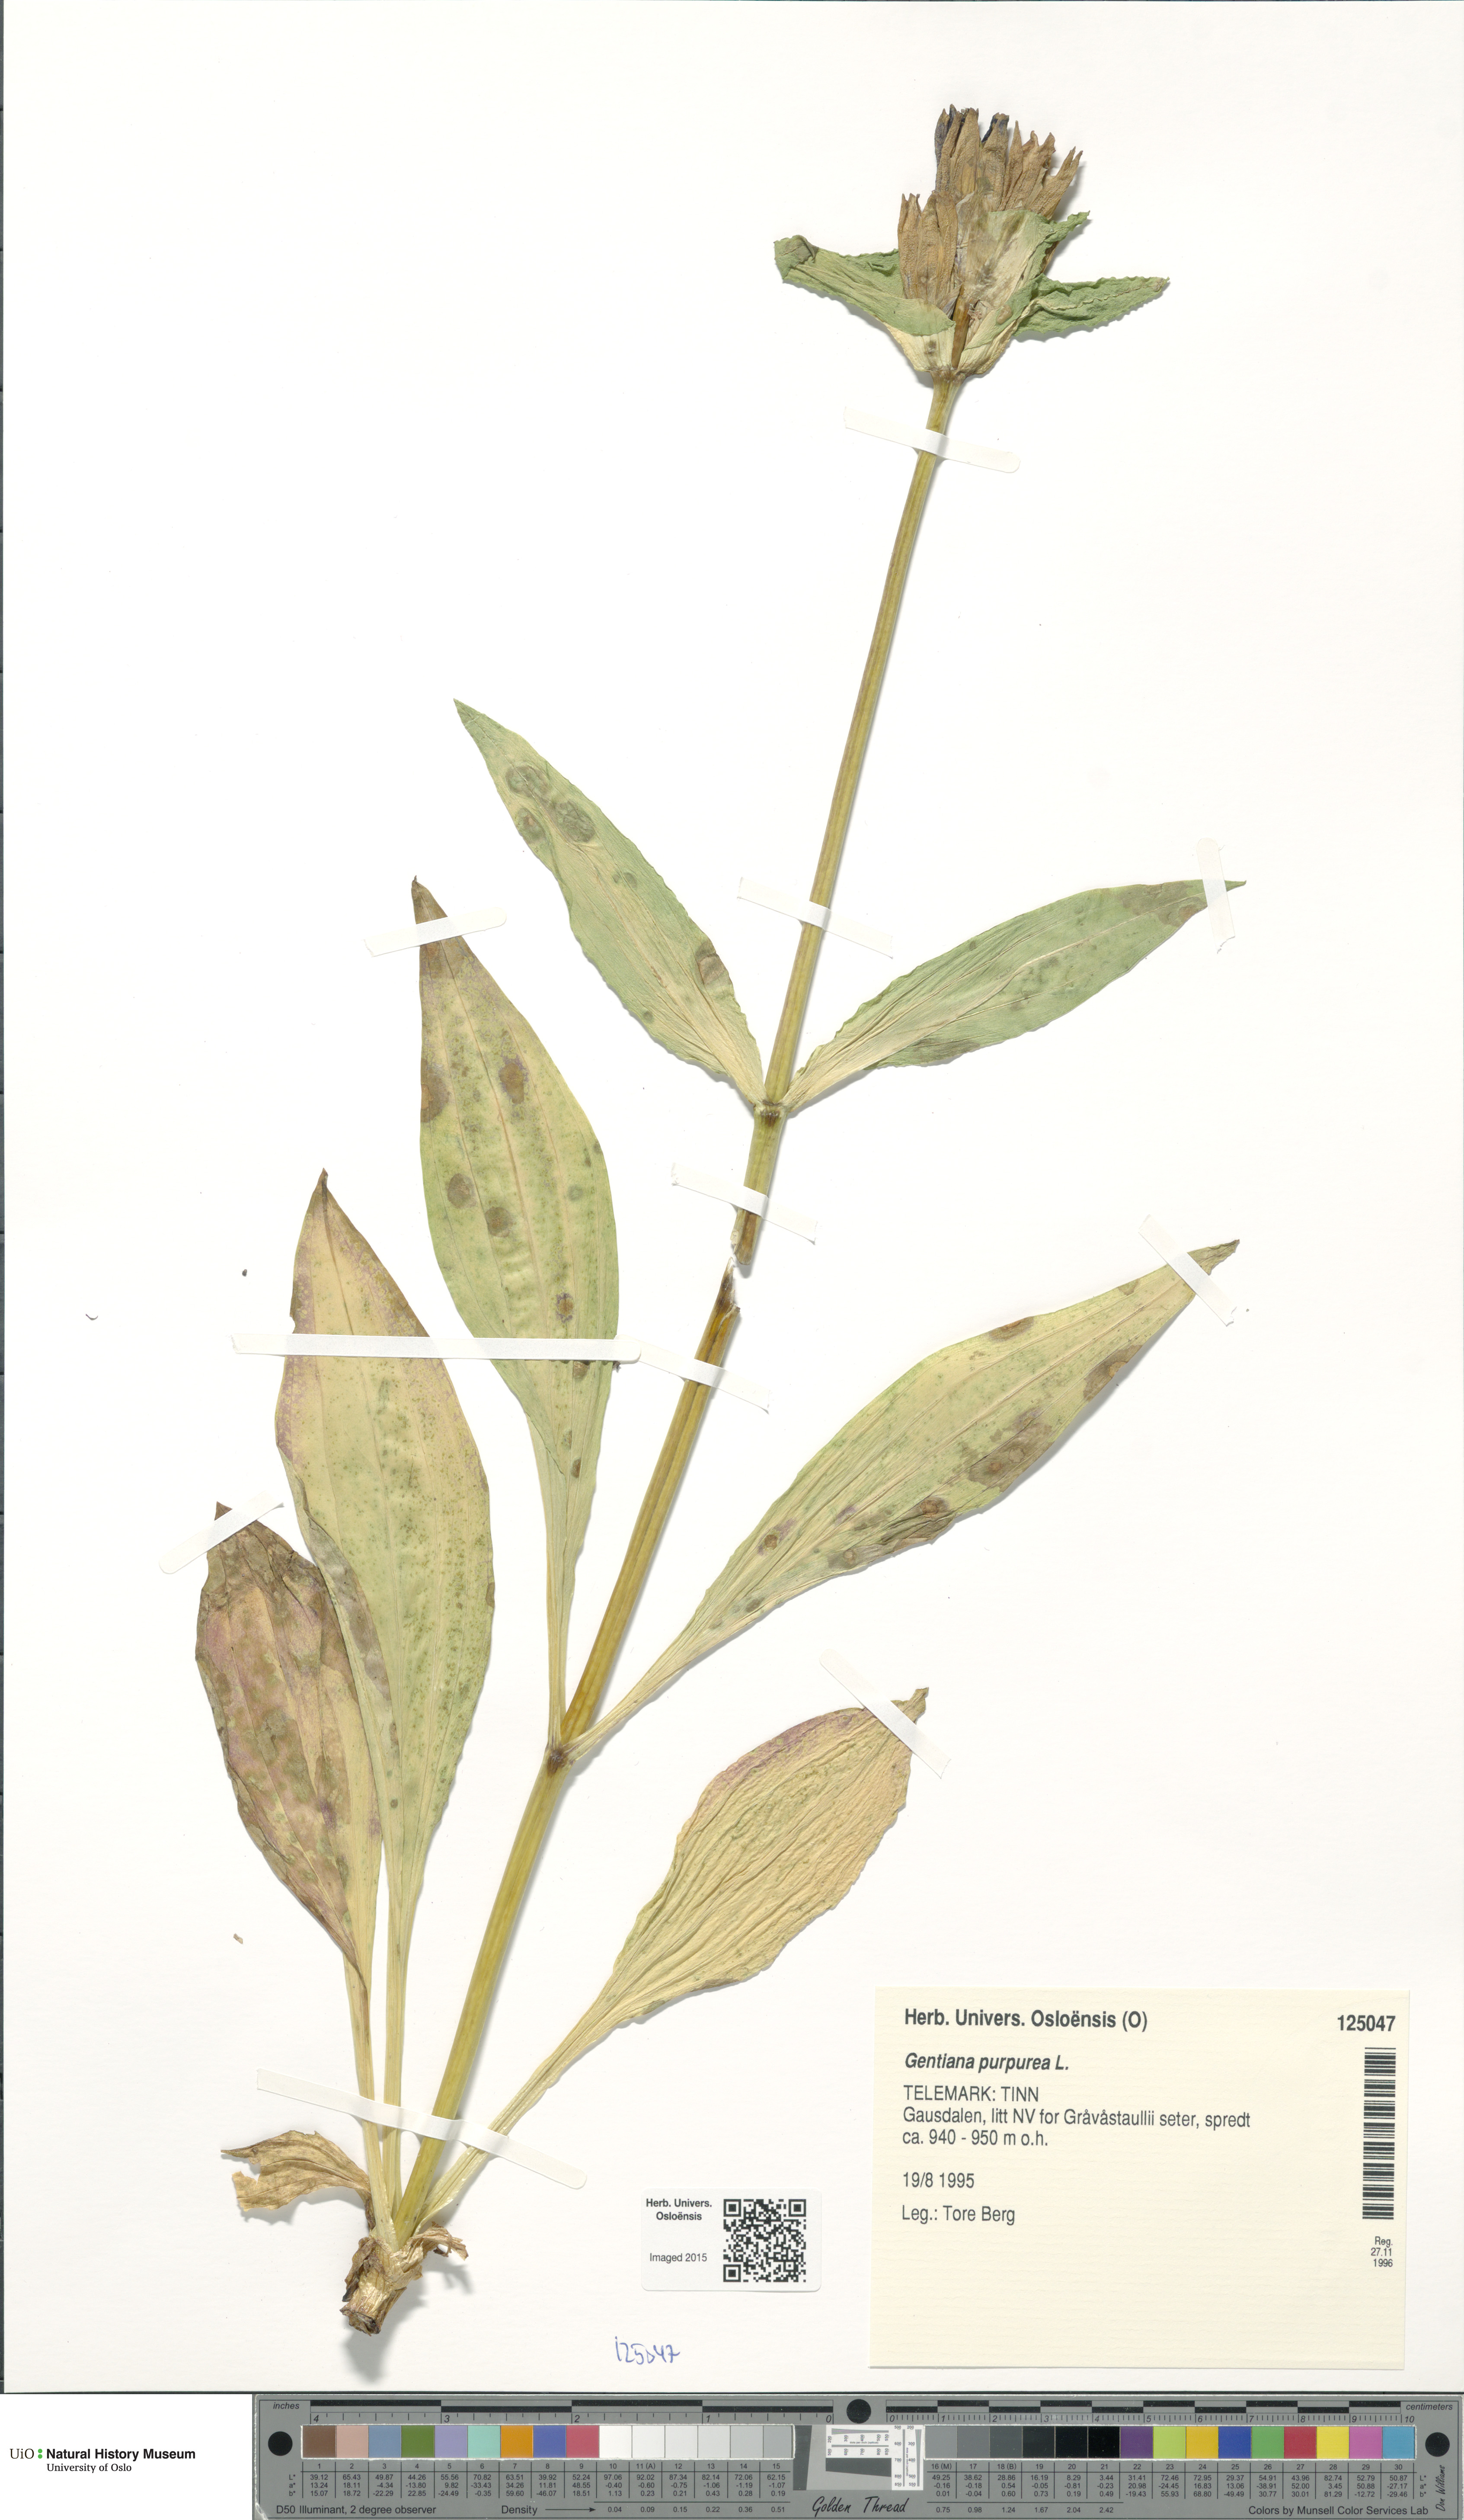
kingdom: Plantae
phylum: Tracheophyta
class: Magnoliopsida
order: Gentianales
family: Gentianaceae
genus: Gentiana
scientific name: Gentiana purpurea
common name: Purple gentian
